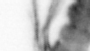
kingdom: Animalia
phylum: Annelida
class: Polychaeta
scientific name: Polychaeta
